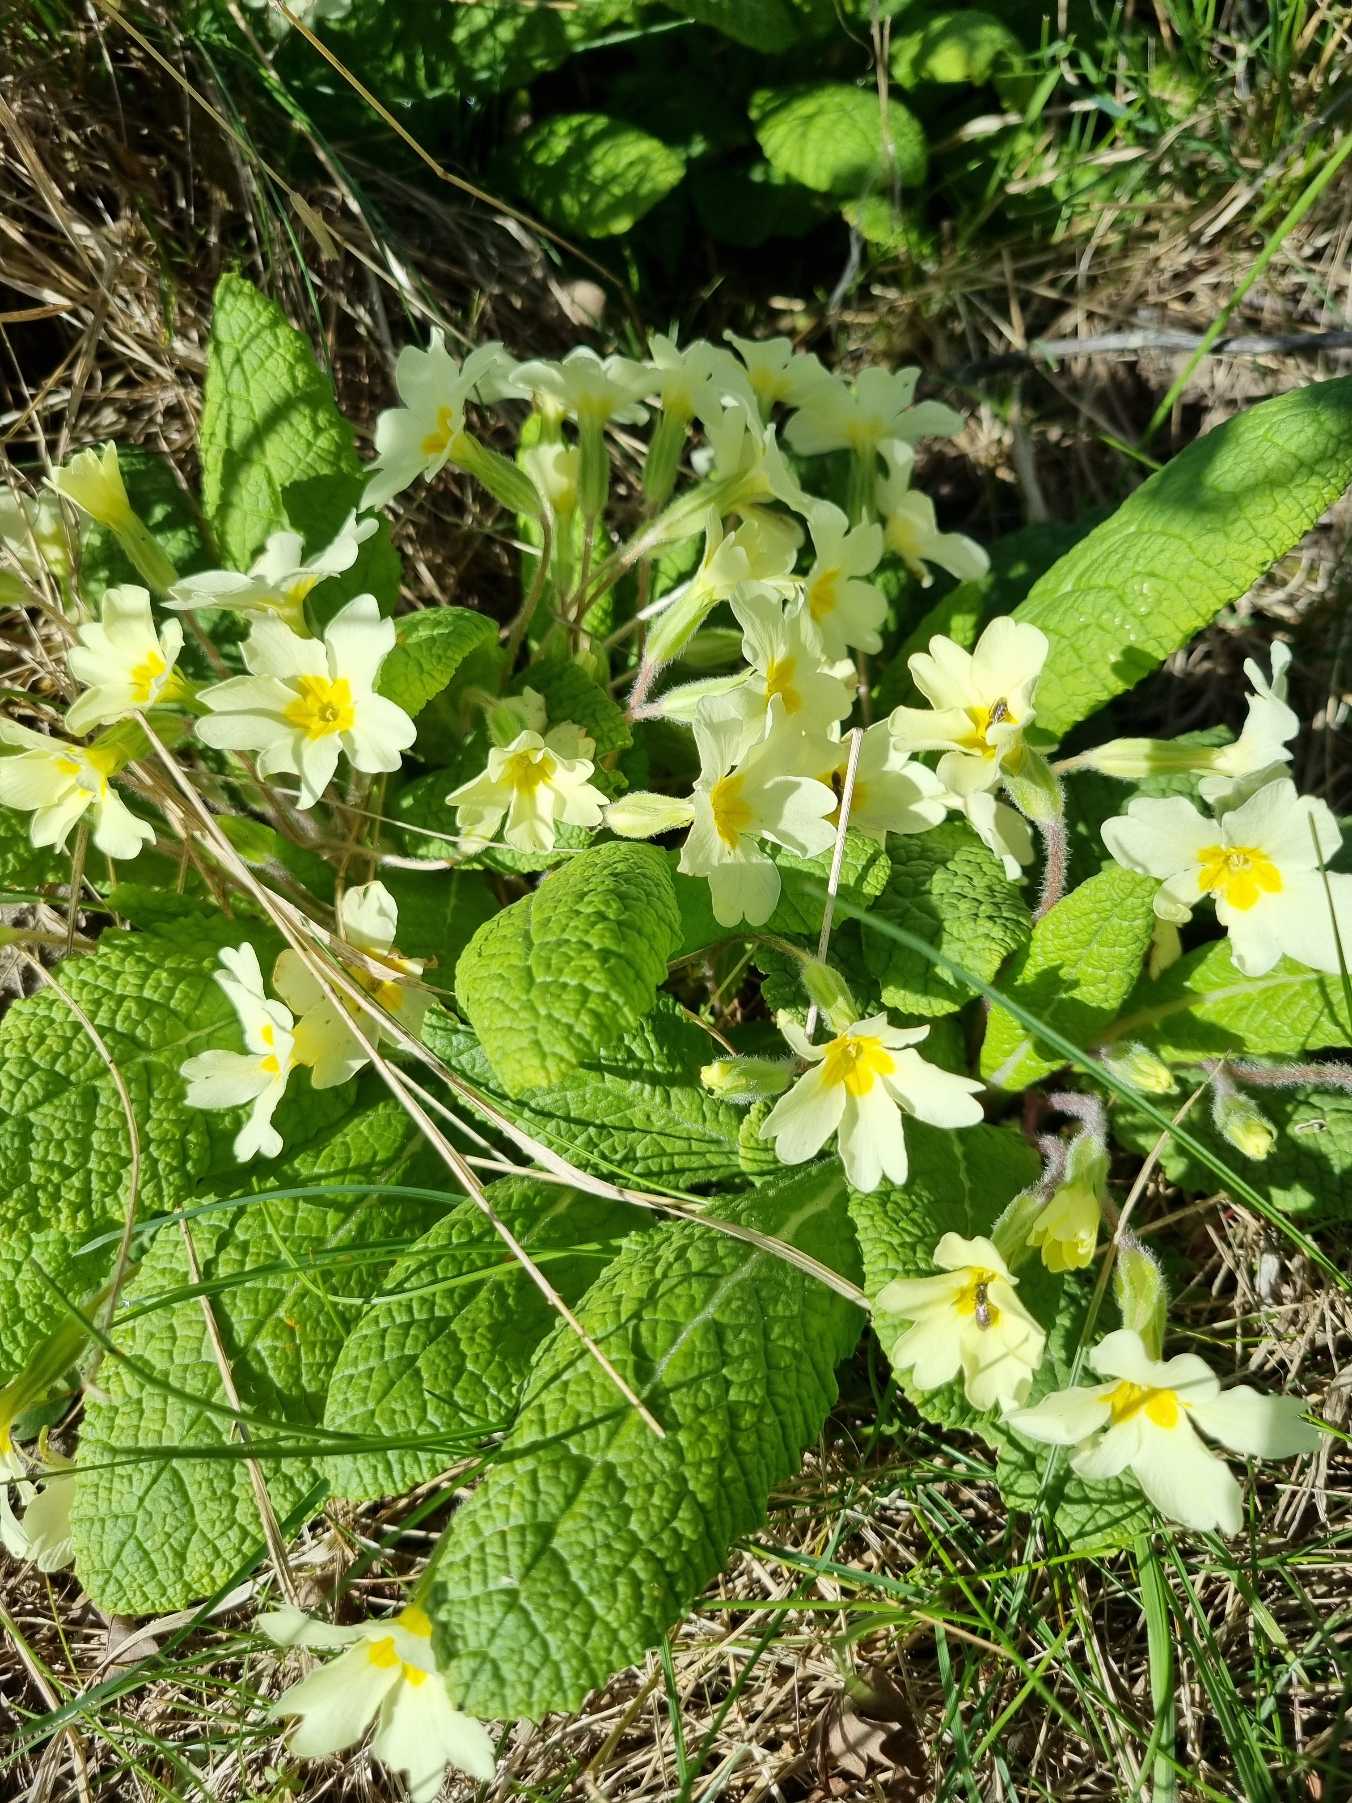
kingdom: Plantae
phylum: Tracheophyta
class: Magnoliopsida
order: Ericales
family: Primulaceae
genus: Primula
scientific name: Primula vulgaris
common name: Storblomstret kodriver
